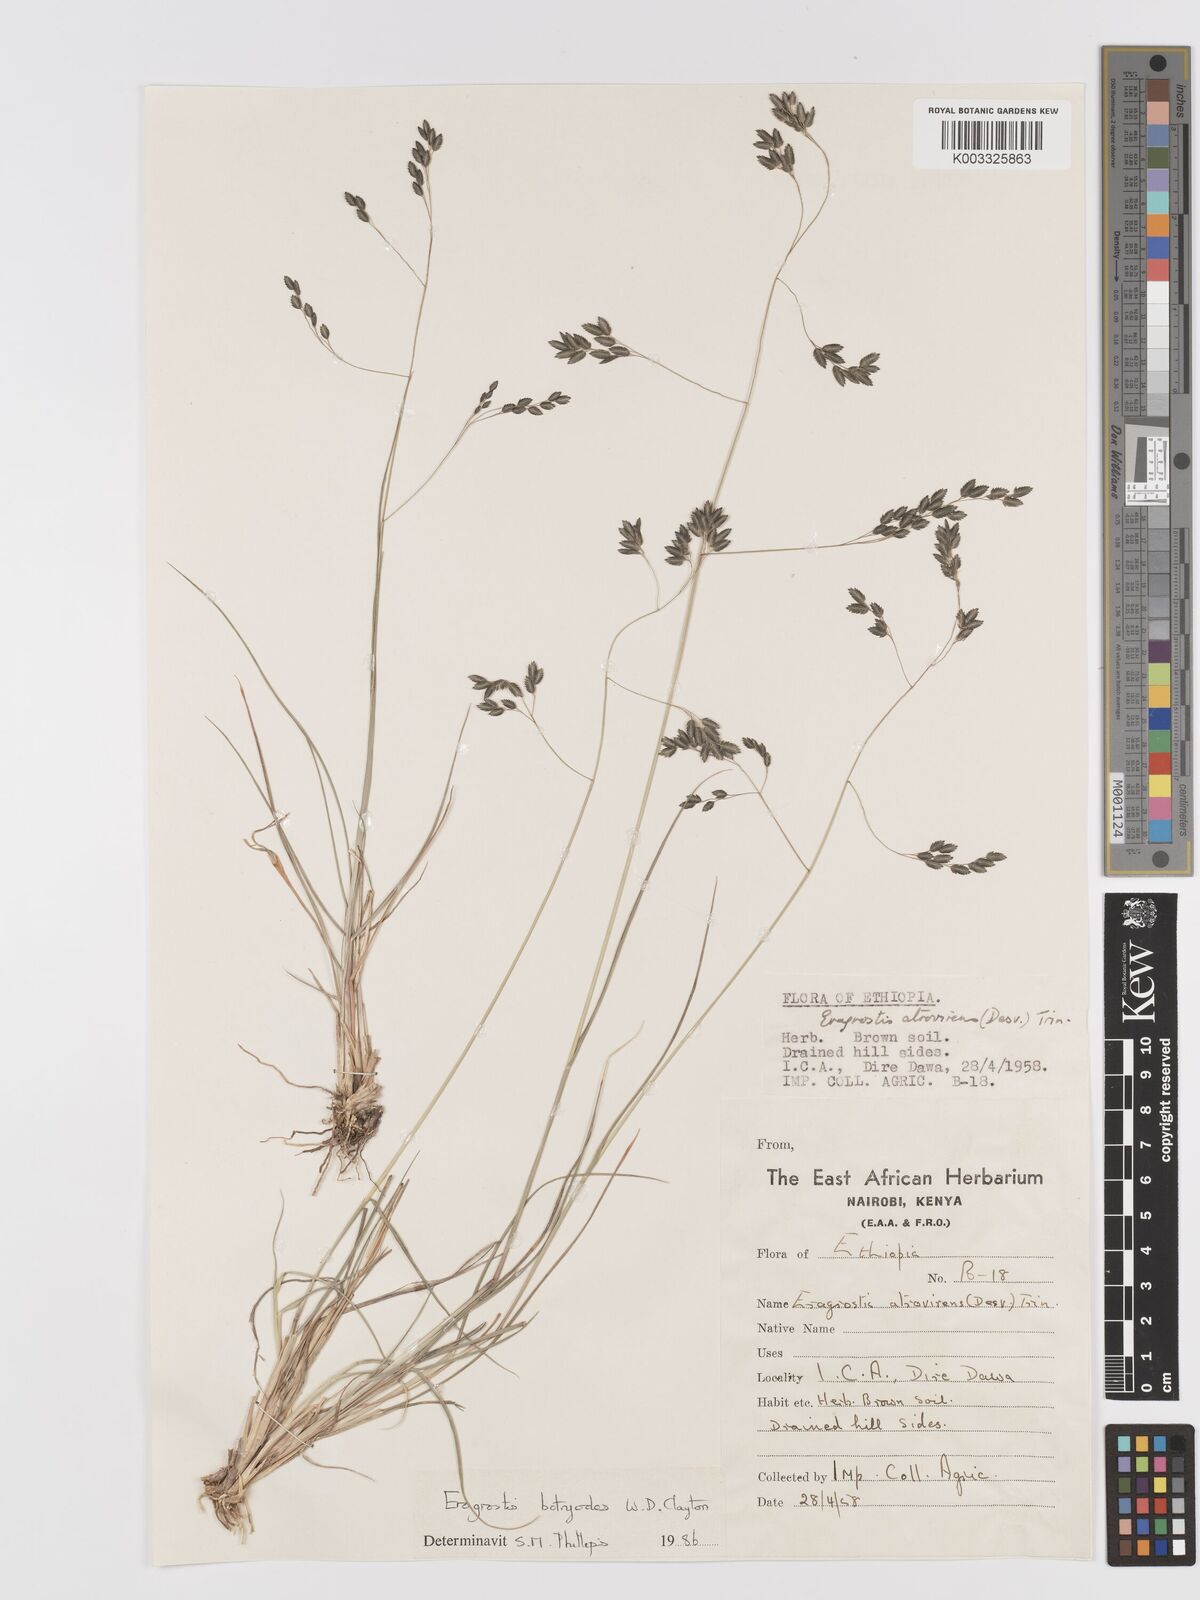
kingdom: Plantae
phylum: Tracheophyta
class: Liliopsida
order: Poales
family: Poaceae
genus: Eragrostis
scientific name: Eragrostis botryodes
